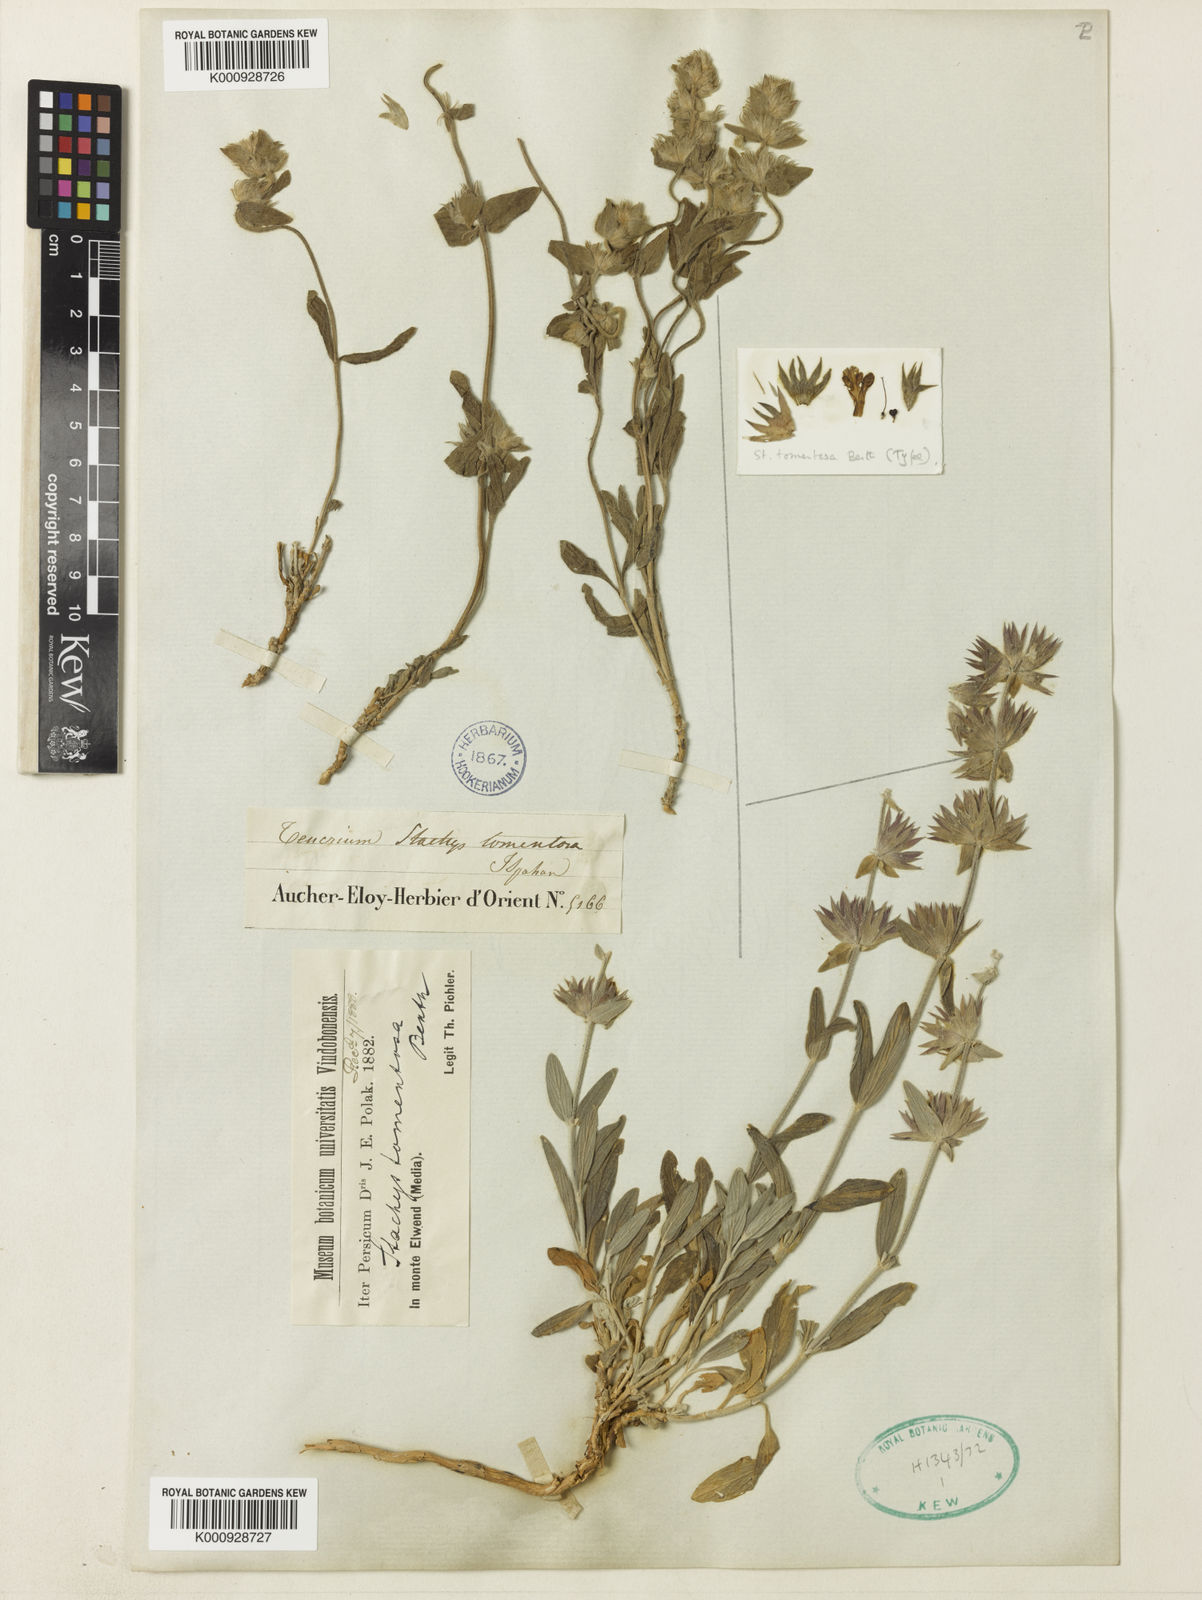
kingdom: Plantae
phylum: Tracheophyta
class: Magnoliopsida
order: Lamiales
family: Lamiaceae
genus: Stachys
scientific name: Stachys bodeana
